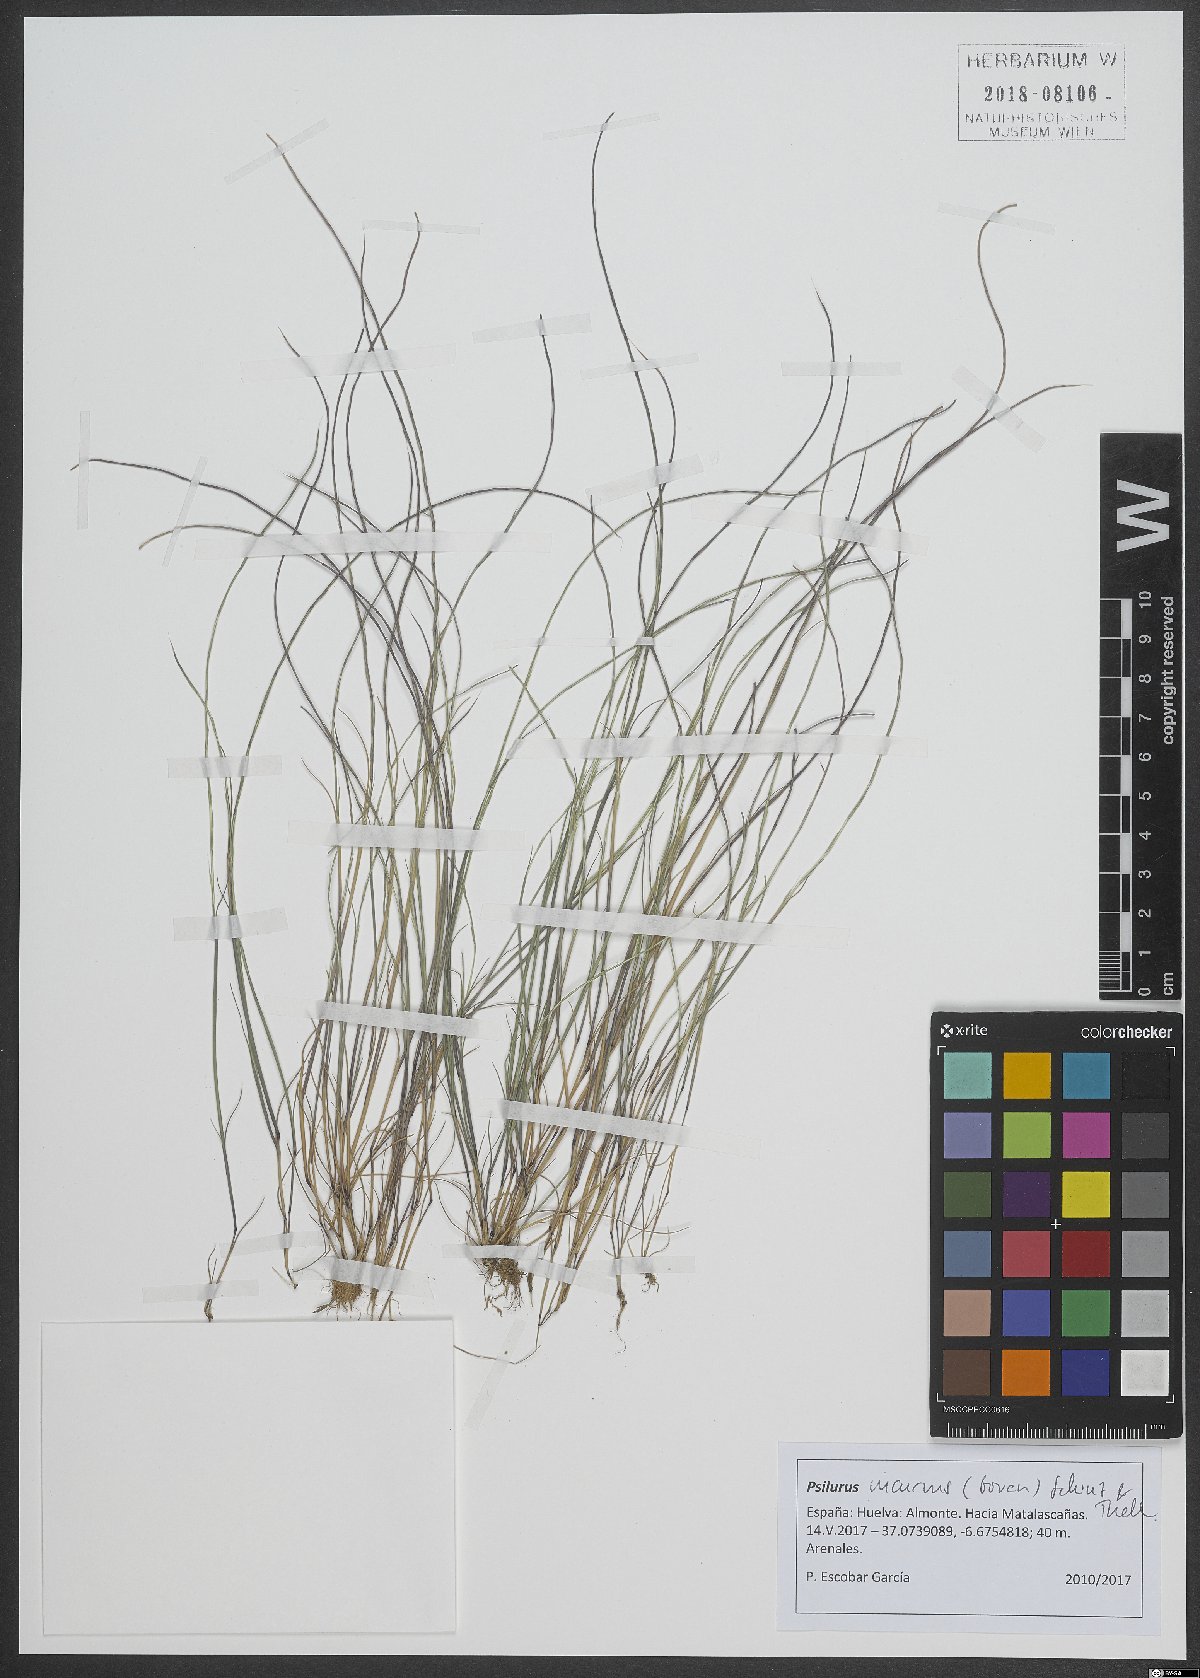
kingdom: Plantae
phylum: Tracheophyta
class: Liliopsida
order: Poales
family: Poaceae
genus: Festuca
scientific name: Festuca incurva
